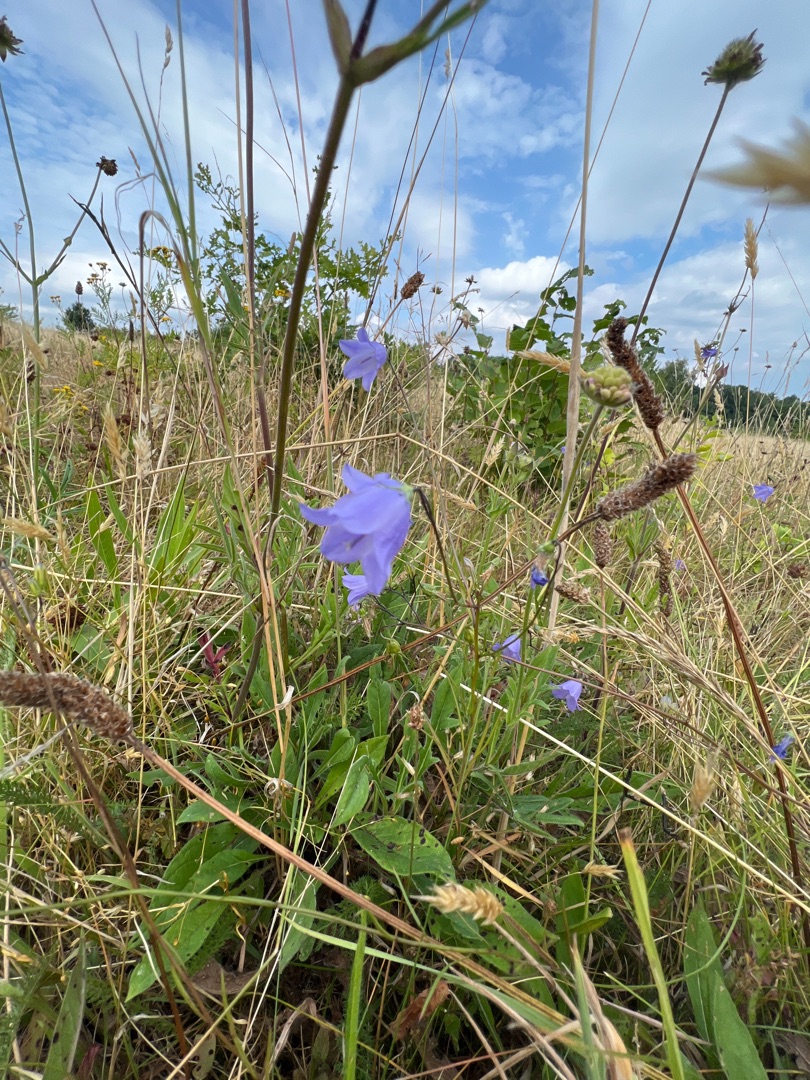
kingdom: Plantae
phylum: Tracheophyta
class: Magnoliopsida
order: Asterales
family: Campanulaceae
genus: Campanula
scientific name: Campanula rotundifolia
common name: Liden klokke
